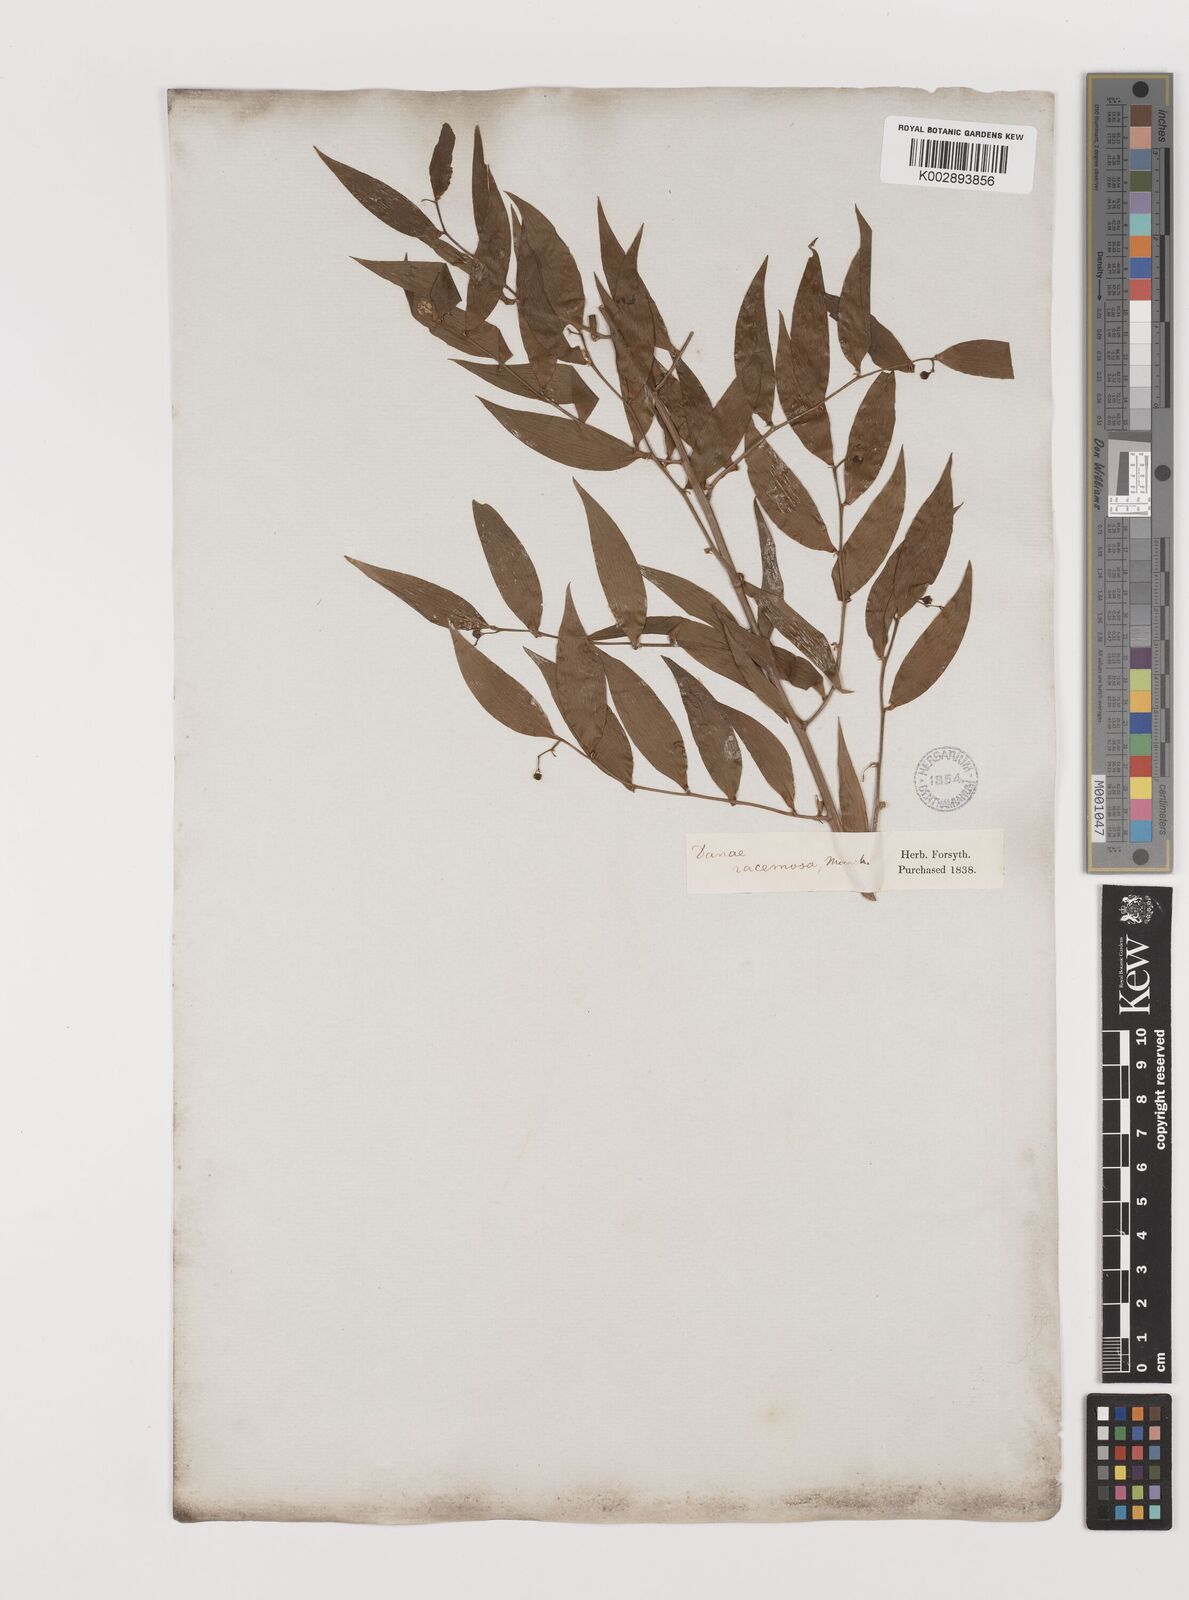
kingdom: Plantae
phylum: Tracheophyta
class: Liliopsida
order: Asparagales
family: Asparagaceae
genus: Danae
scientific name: Danae
